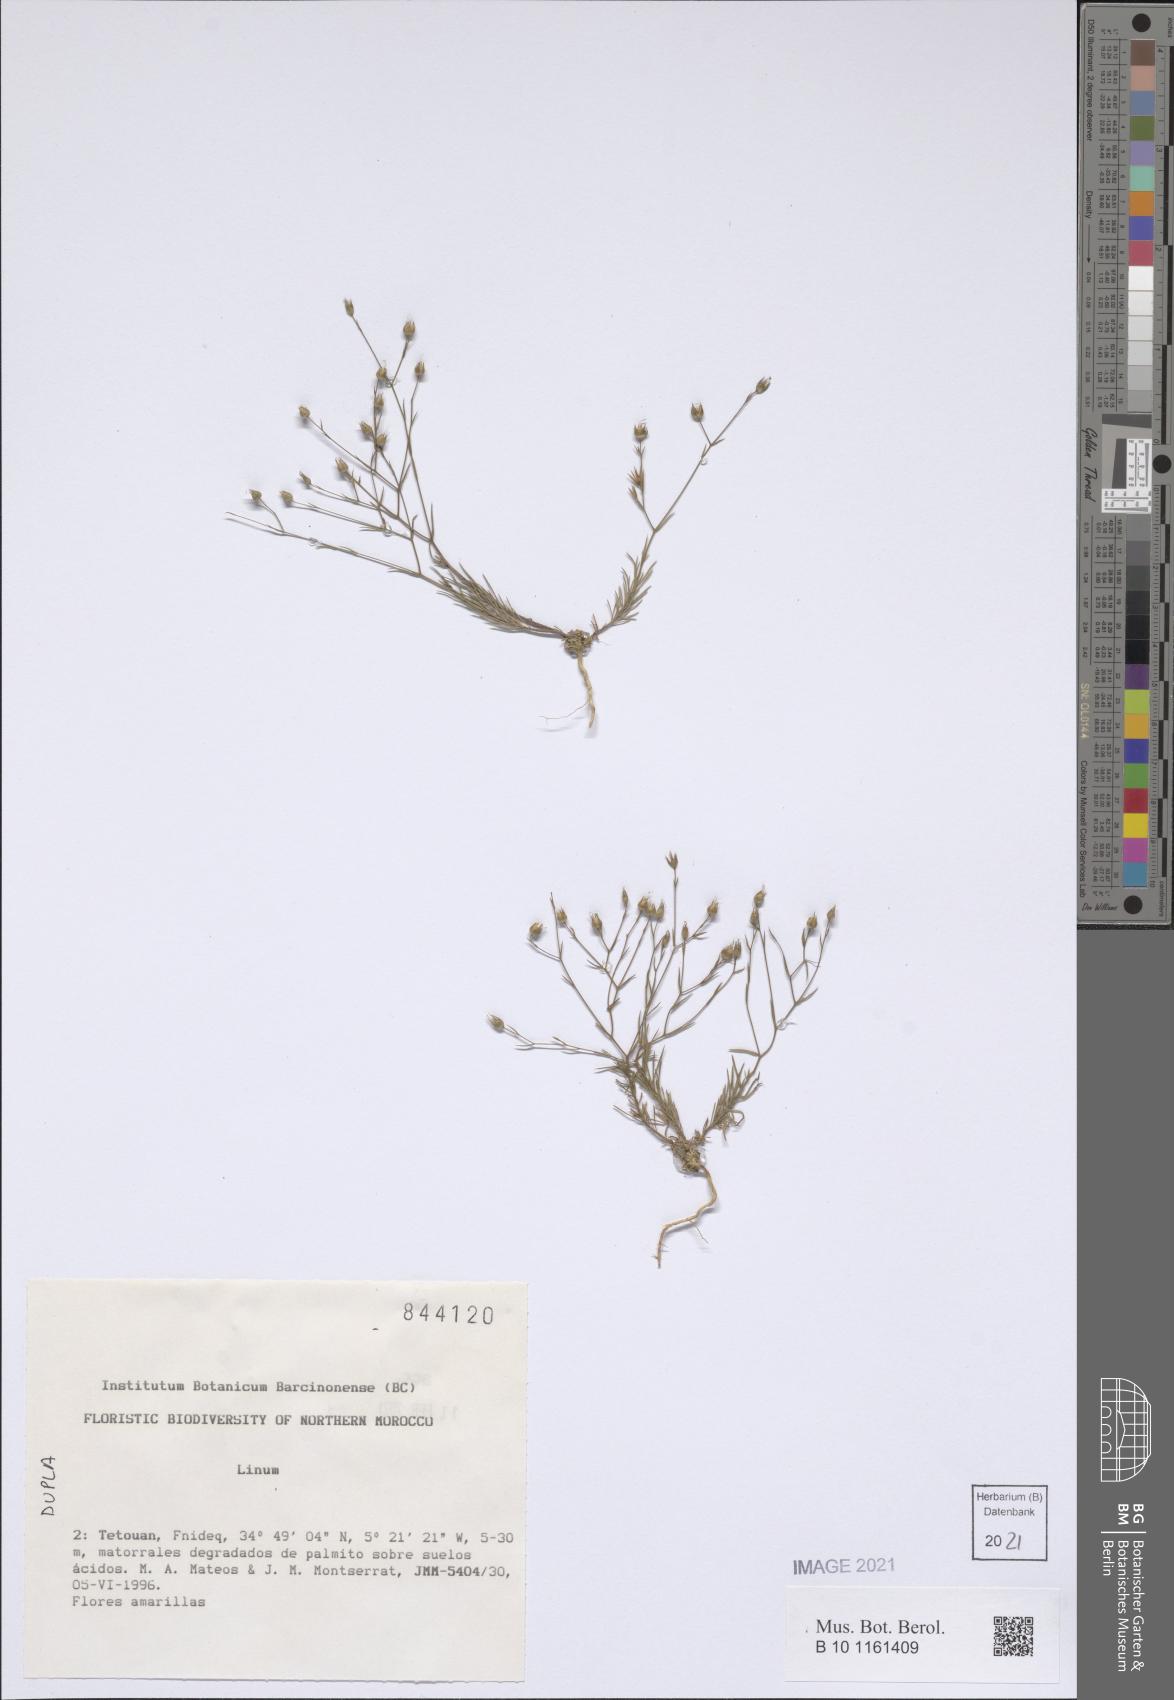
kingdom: Plantae
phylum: Tracheophyta
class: Magnoliopsida
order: Malpighiales
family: Linaceae
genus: Linum
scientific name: Linum
